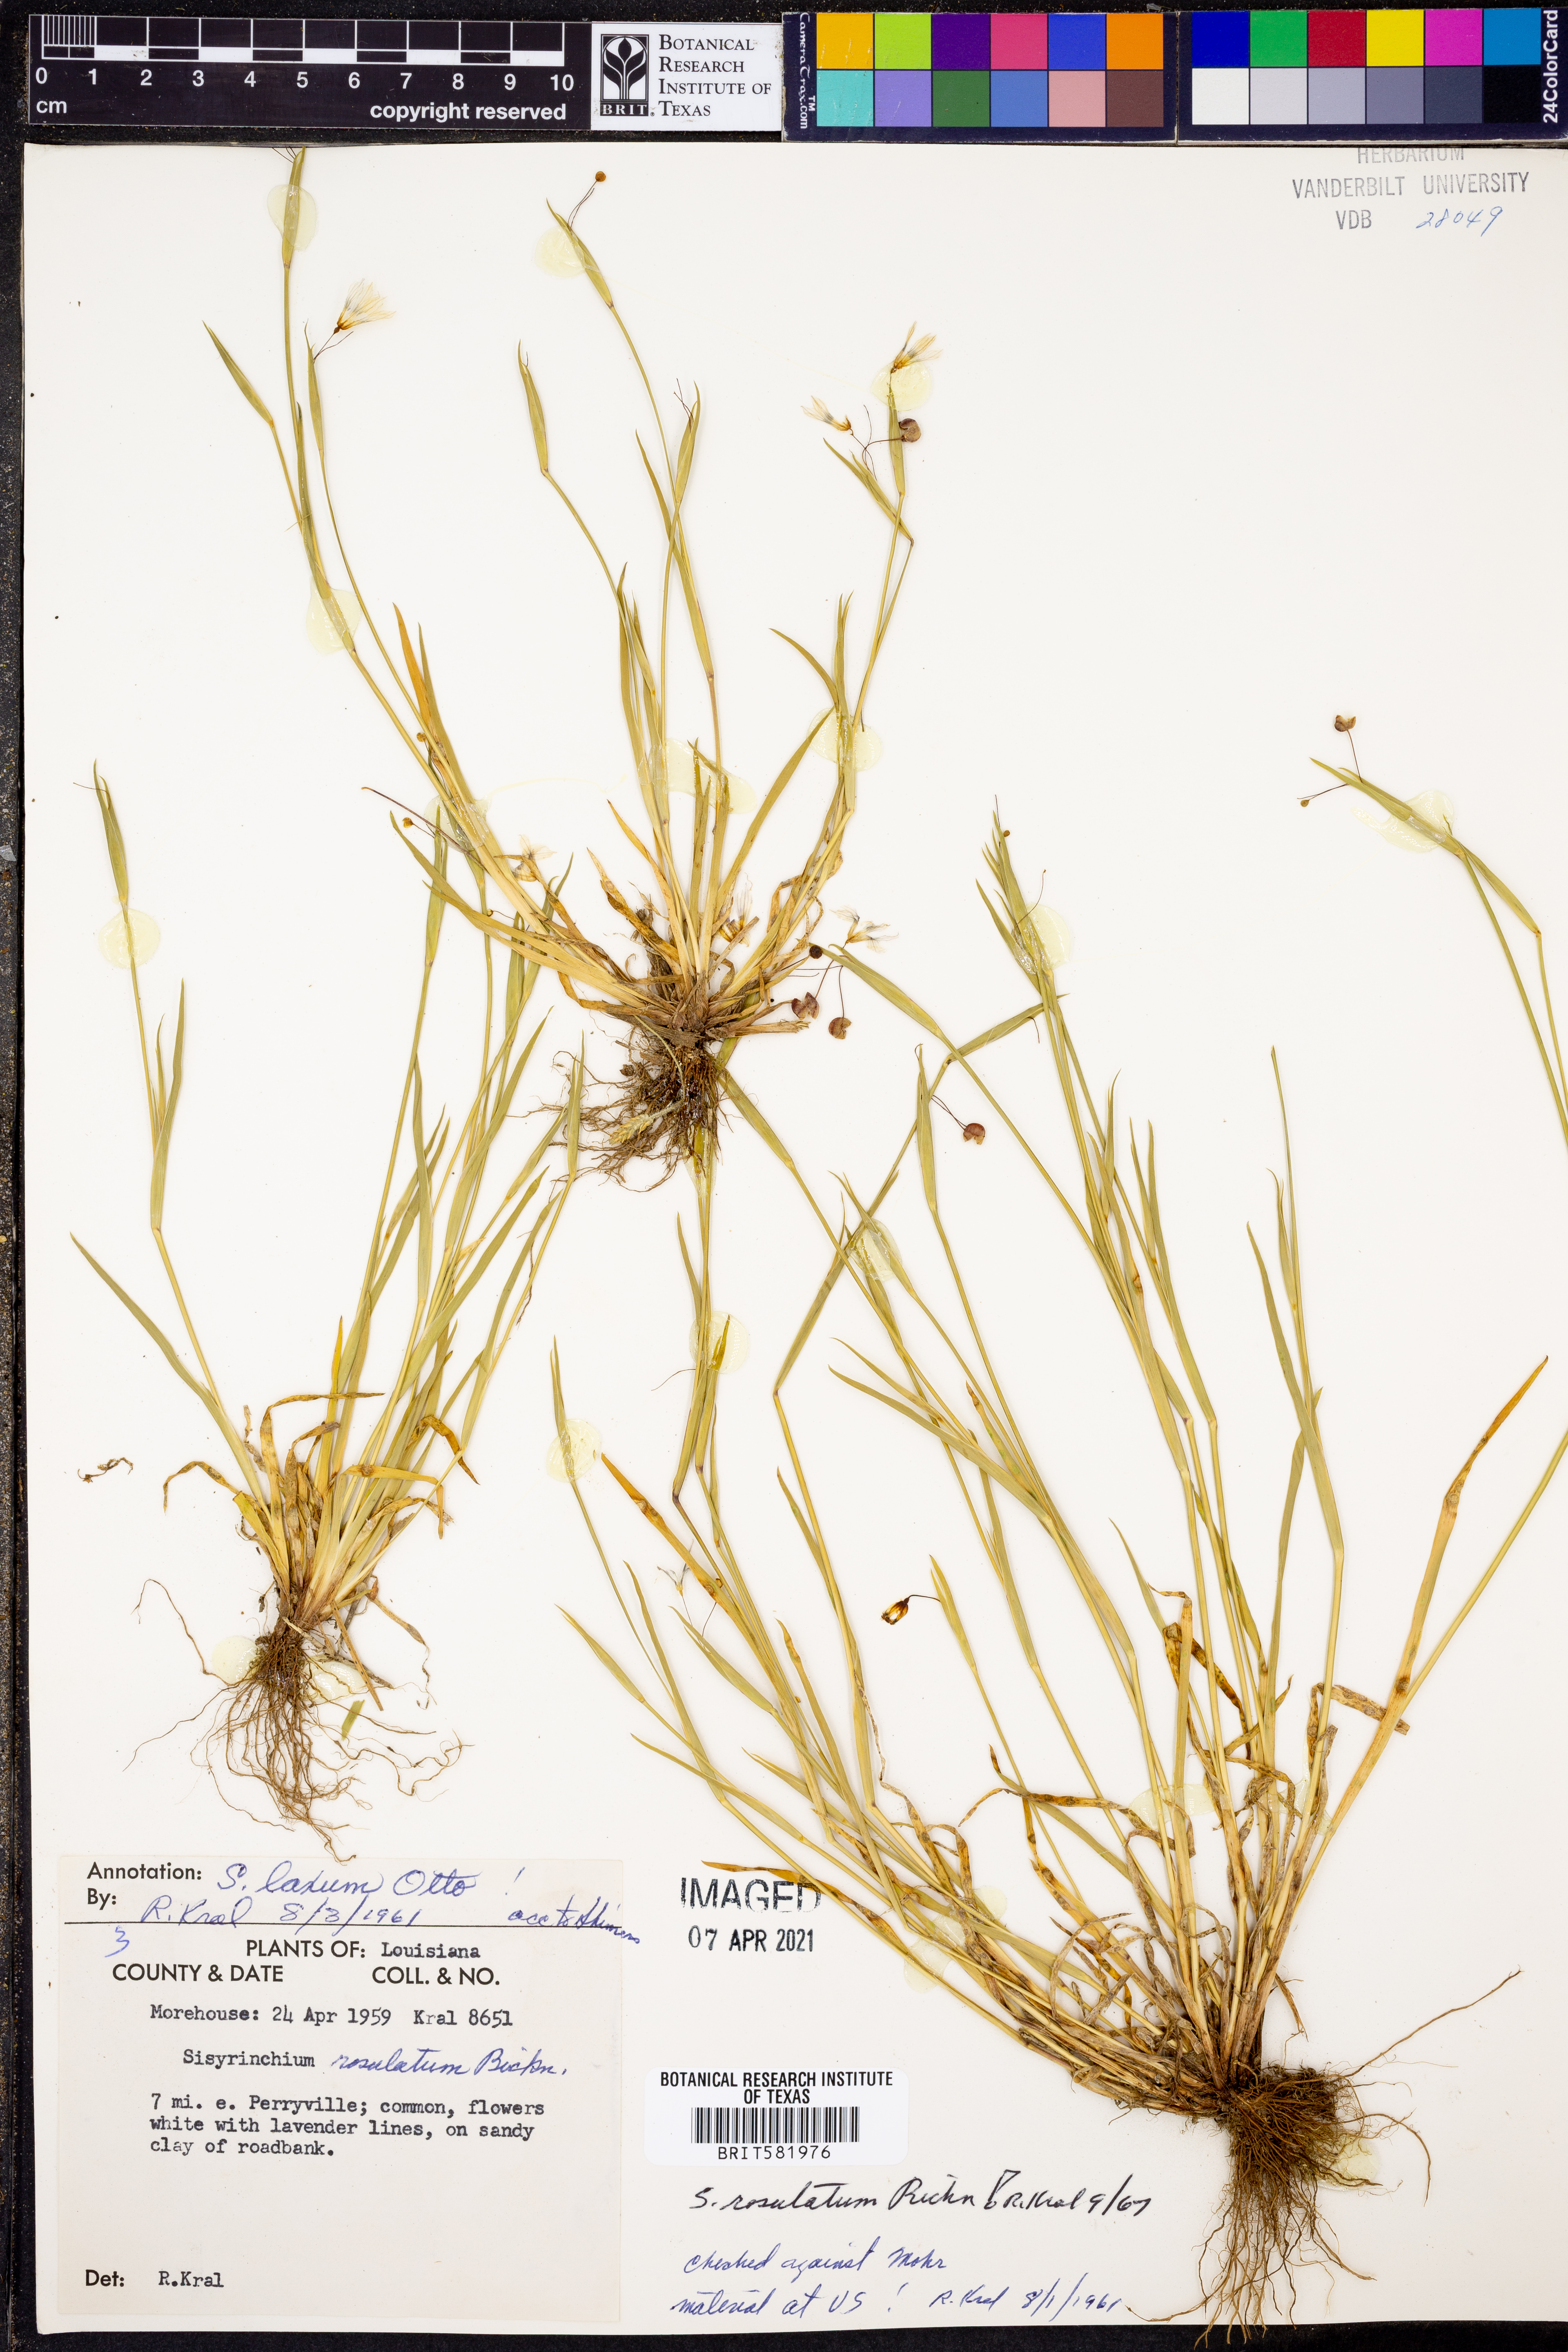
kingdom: Plantae
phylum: Tracheophyta
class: Liliopsida
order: Asparagales
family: Iridaceae
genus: Sisyrinchium
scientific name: Sisyrinchium rosulatum
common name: Annual blue-eyed grass
